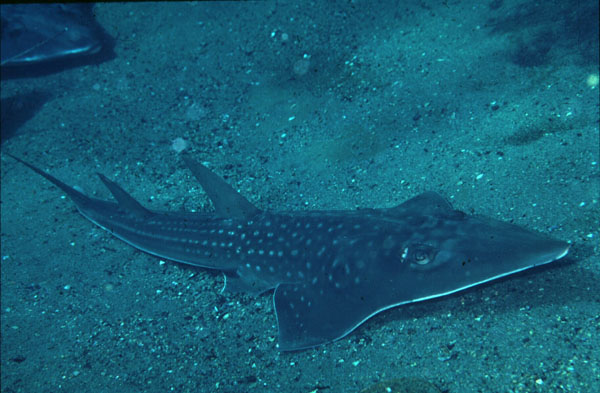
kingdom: Animalia
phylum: Chordata
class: Elasmobranchii
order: Rhinopristiformes
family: Rhinidae
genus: Rhynchobatus
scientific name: Rhynchobatus djiddensis
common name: Giant guitarfish
